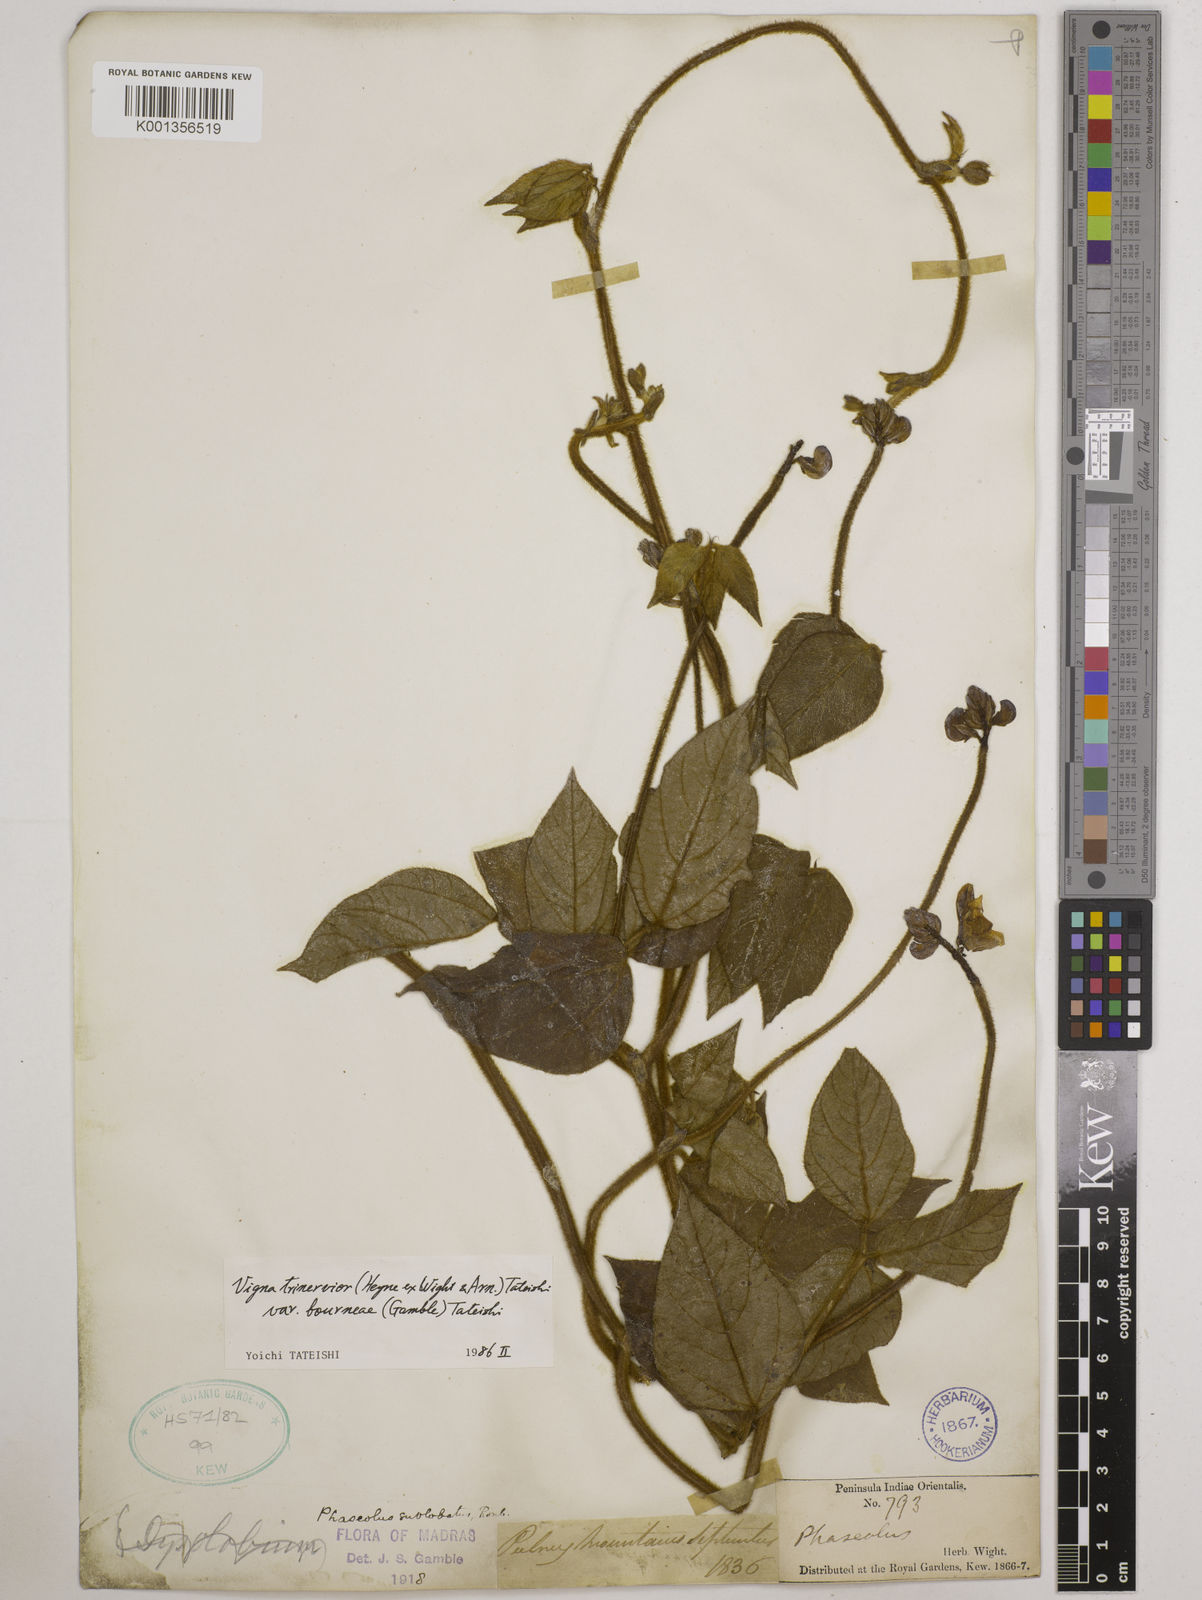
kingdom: Plantae
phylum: Tracheophyta
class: Magnoliopsida
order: Fabales
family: Fabaceae
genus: Vigna
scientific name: Vigna
